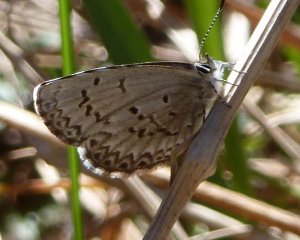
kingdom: Animalia
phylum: Arthropoda
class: Insecta
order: Lepidoptera
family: Lycaenidae
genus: Celastrina
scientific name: Celastrina lucia
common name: Northern Spring Azure
